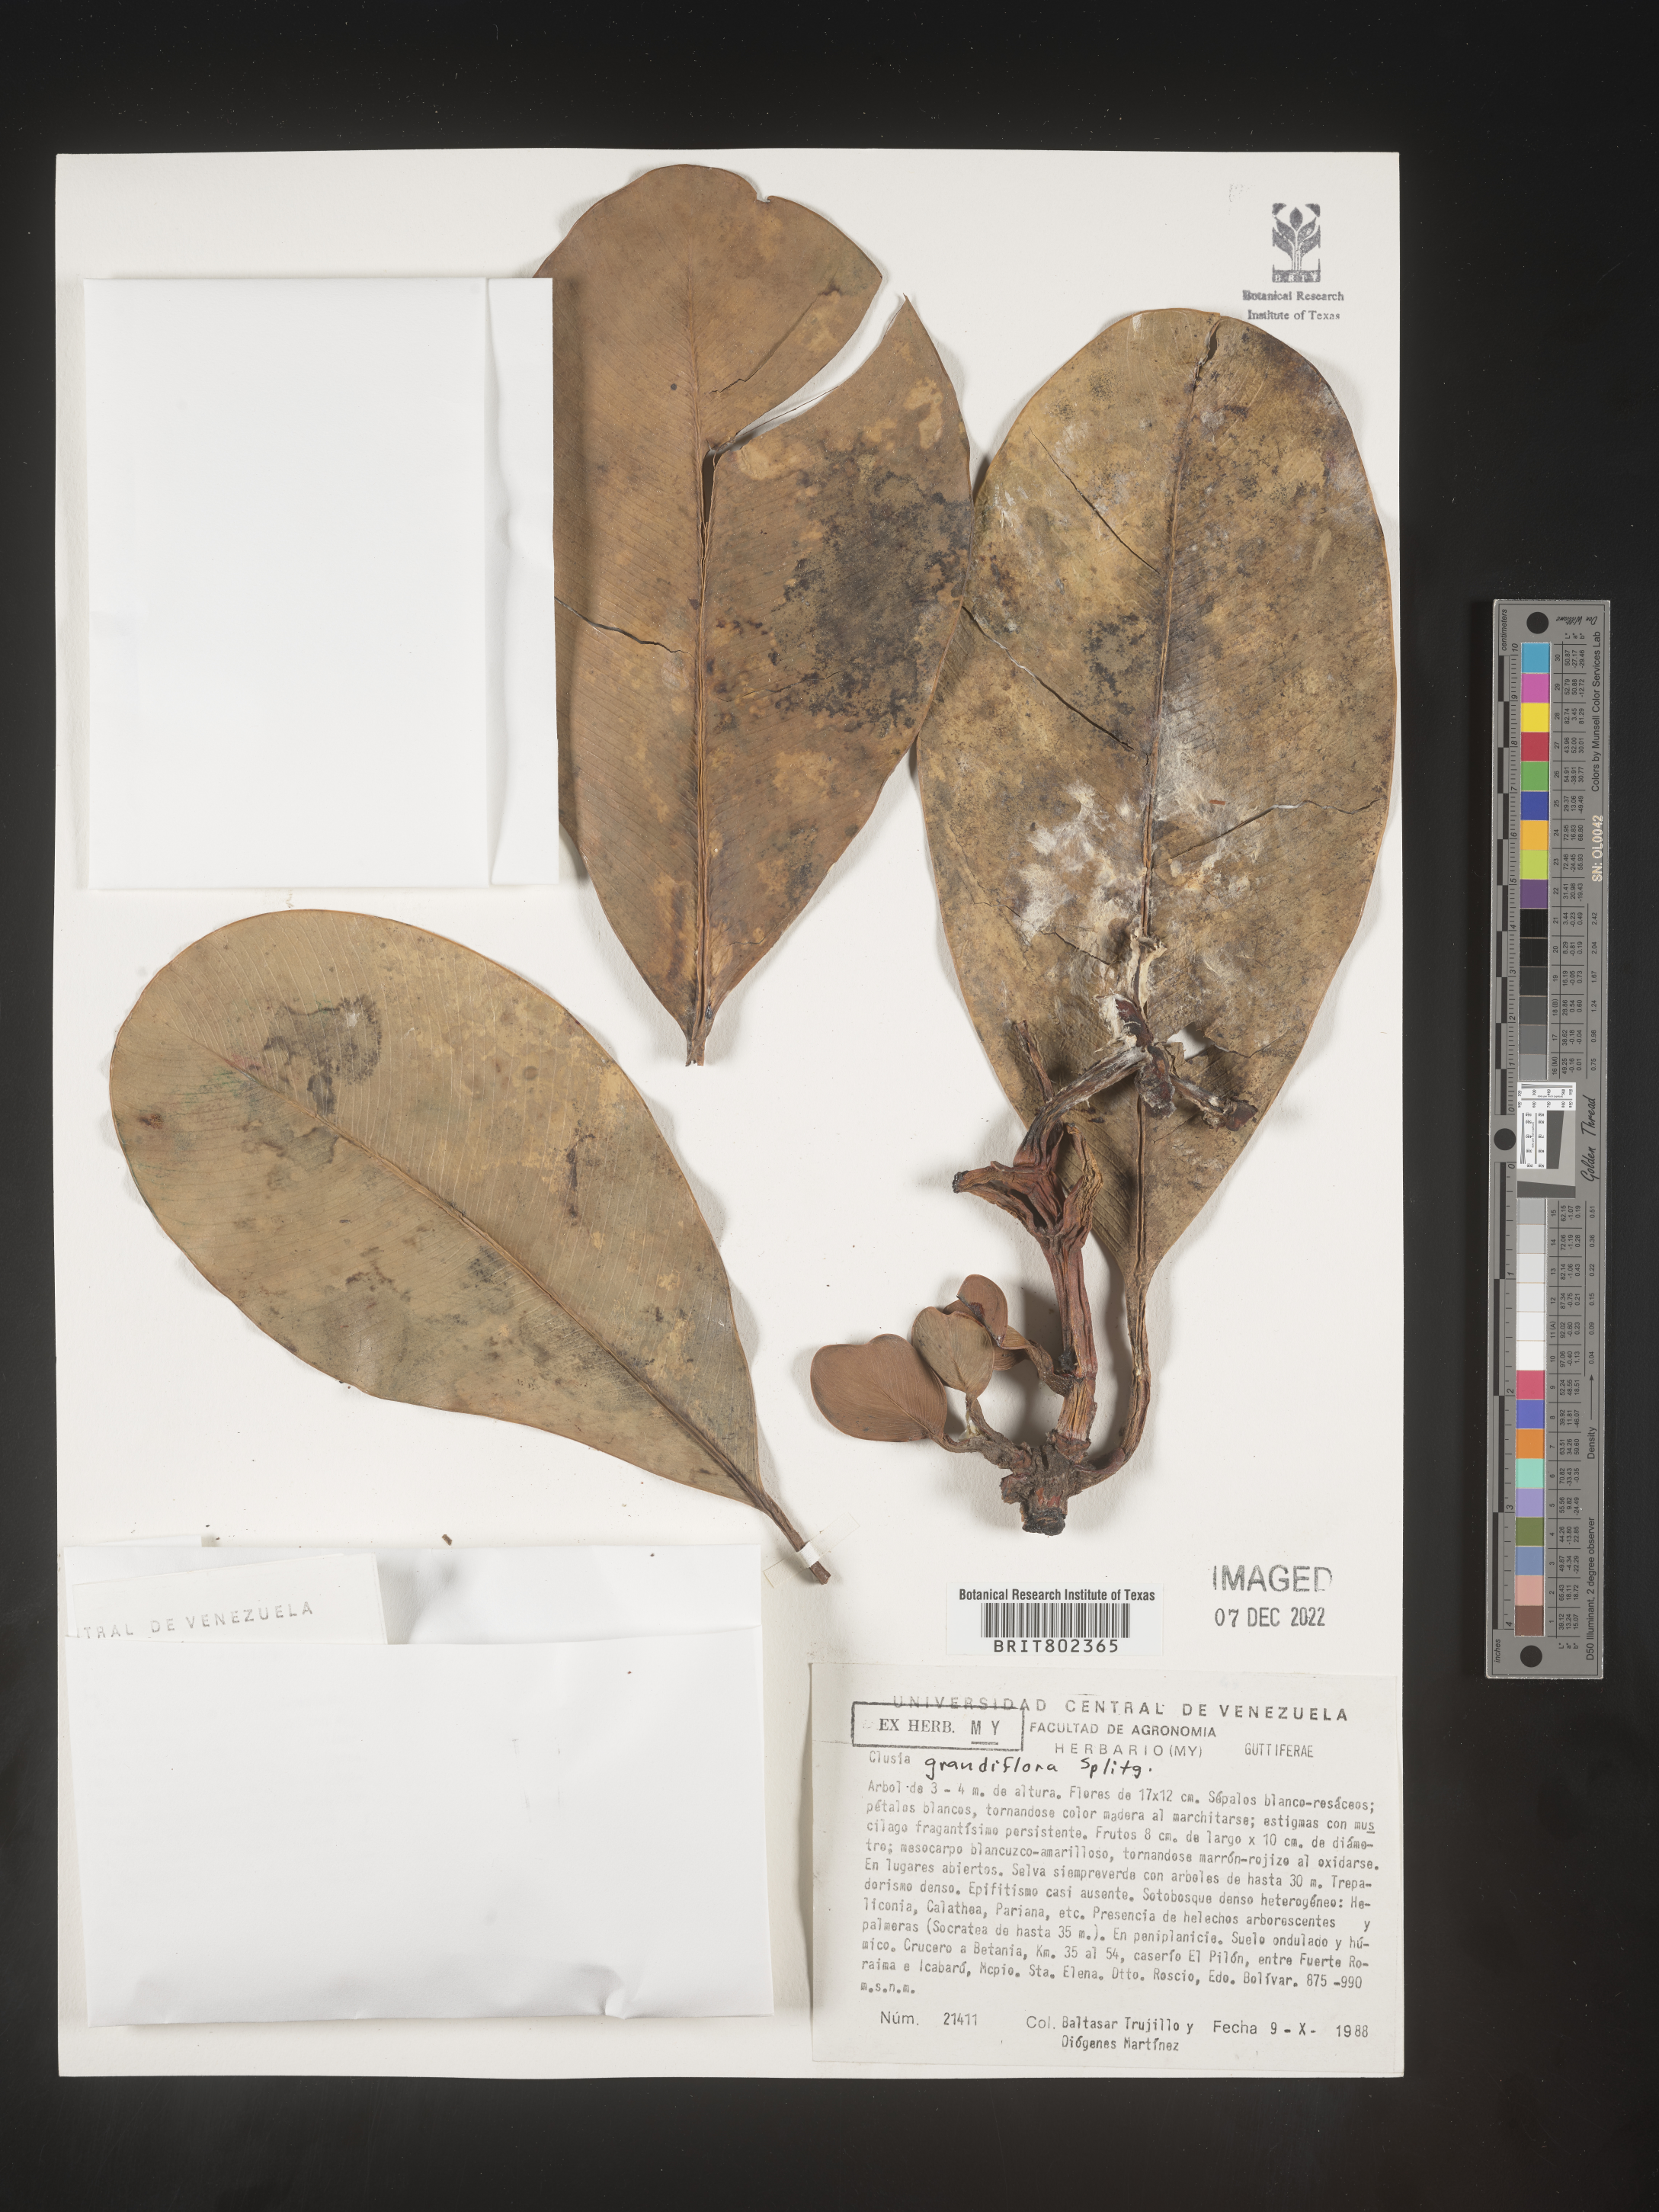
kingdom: Plantae
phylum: Tracheophyta
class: Magnoliopsida
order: Malpighiales
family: Clusiaceae
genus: Clusia
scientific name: Clusia grandiflora
